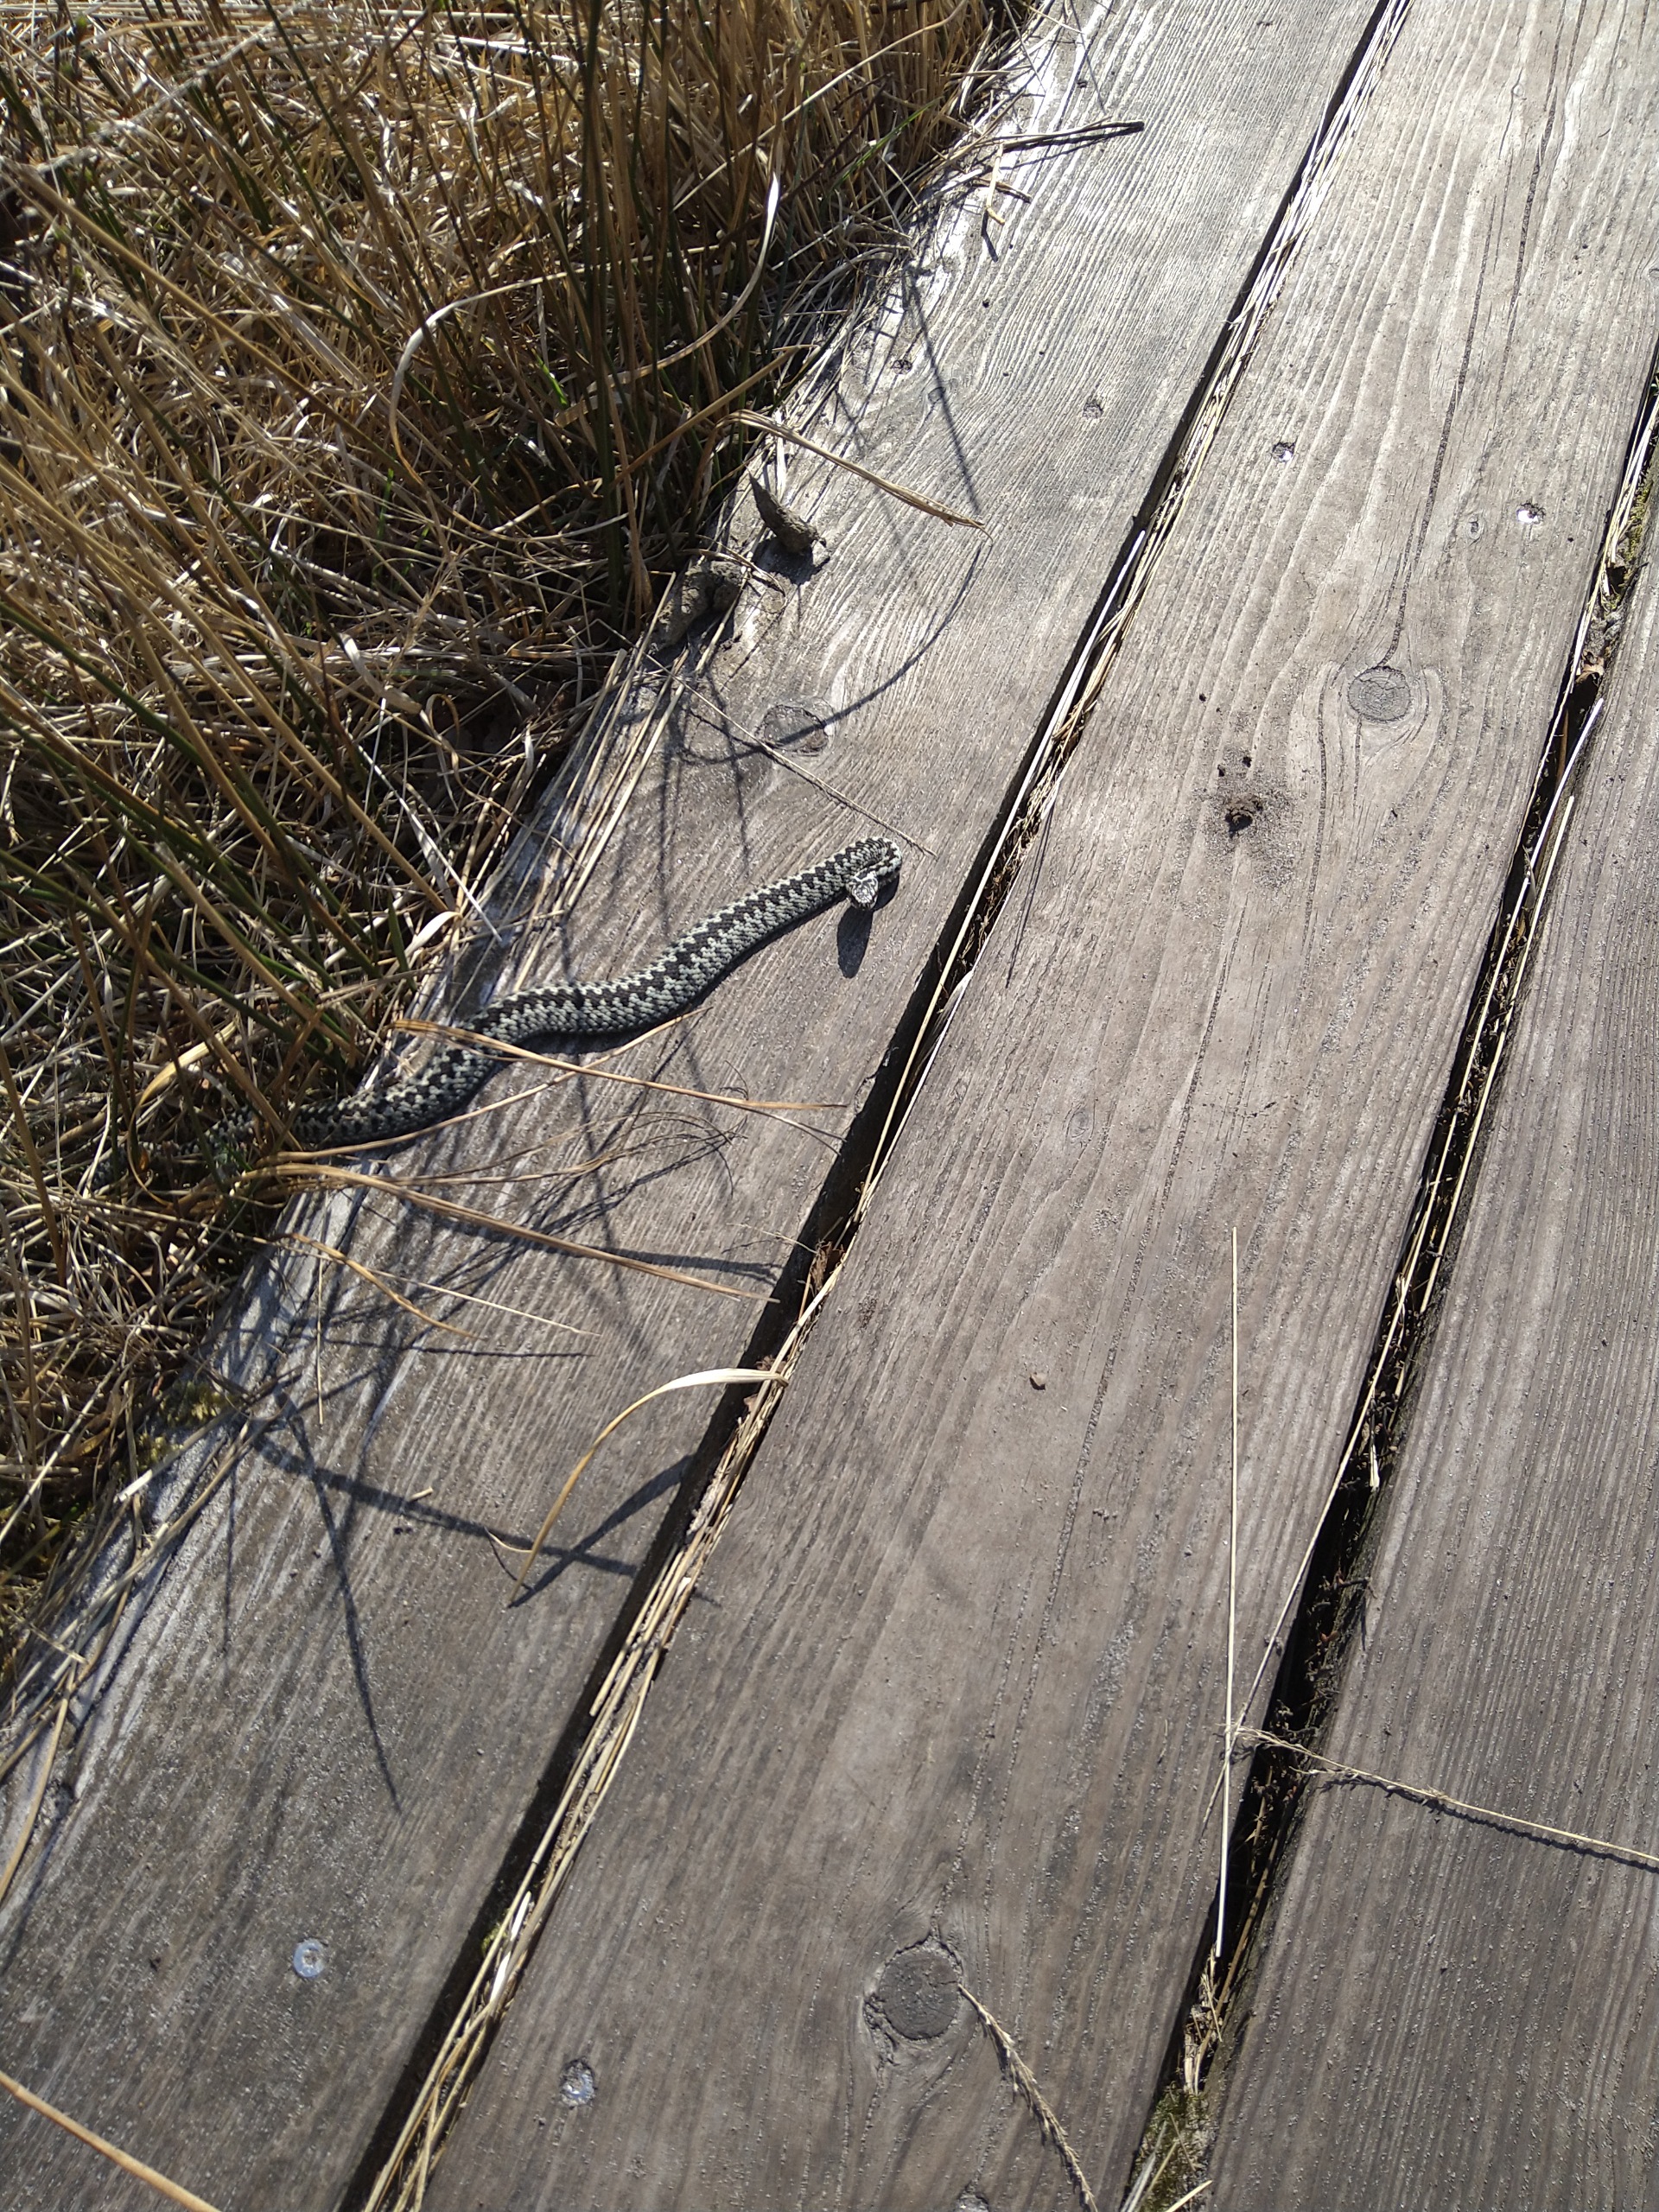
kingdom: Animalia
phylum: Chordata
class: Squamata
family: Viperidae
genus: Vipera
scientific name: Vipera berus
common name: Hugorm
